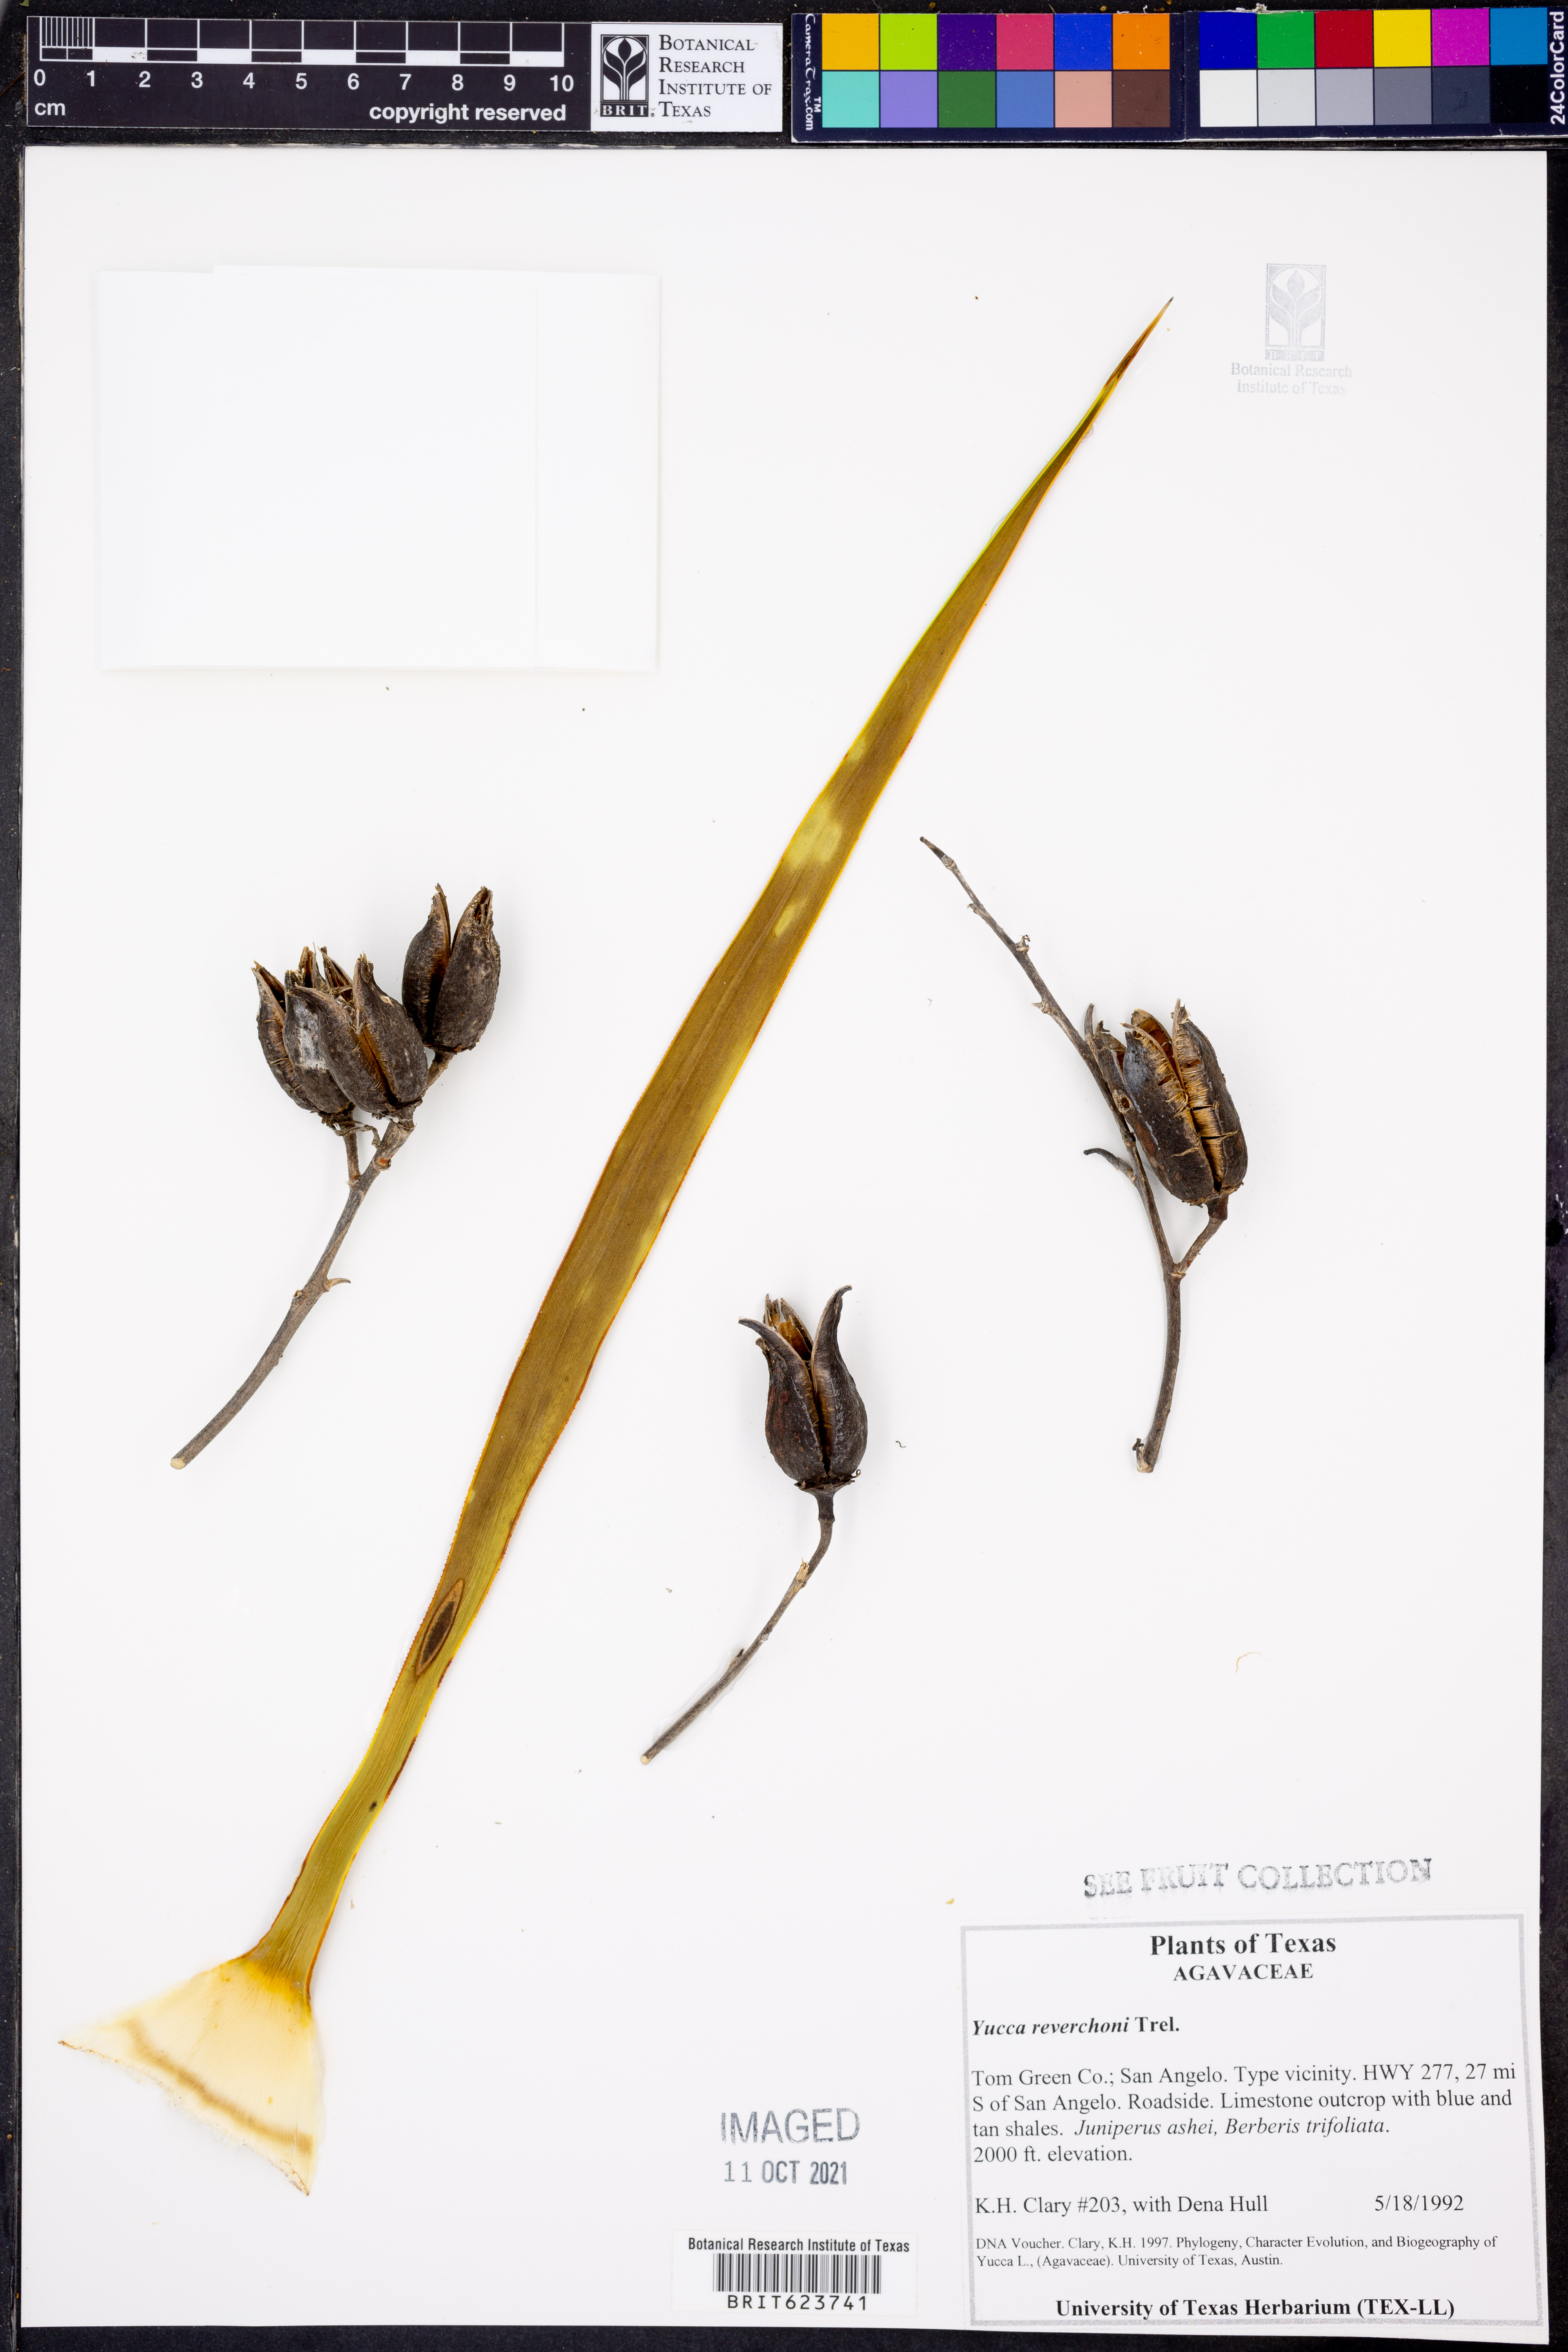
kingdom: Plantae
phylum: Tracheophyta
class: Liliopsida
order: Asparagales
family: Asparagaceae
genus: Yucca
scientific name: Yucca reverchonii
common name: San angelo yucca
